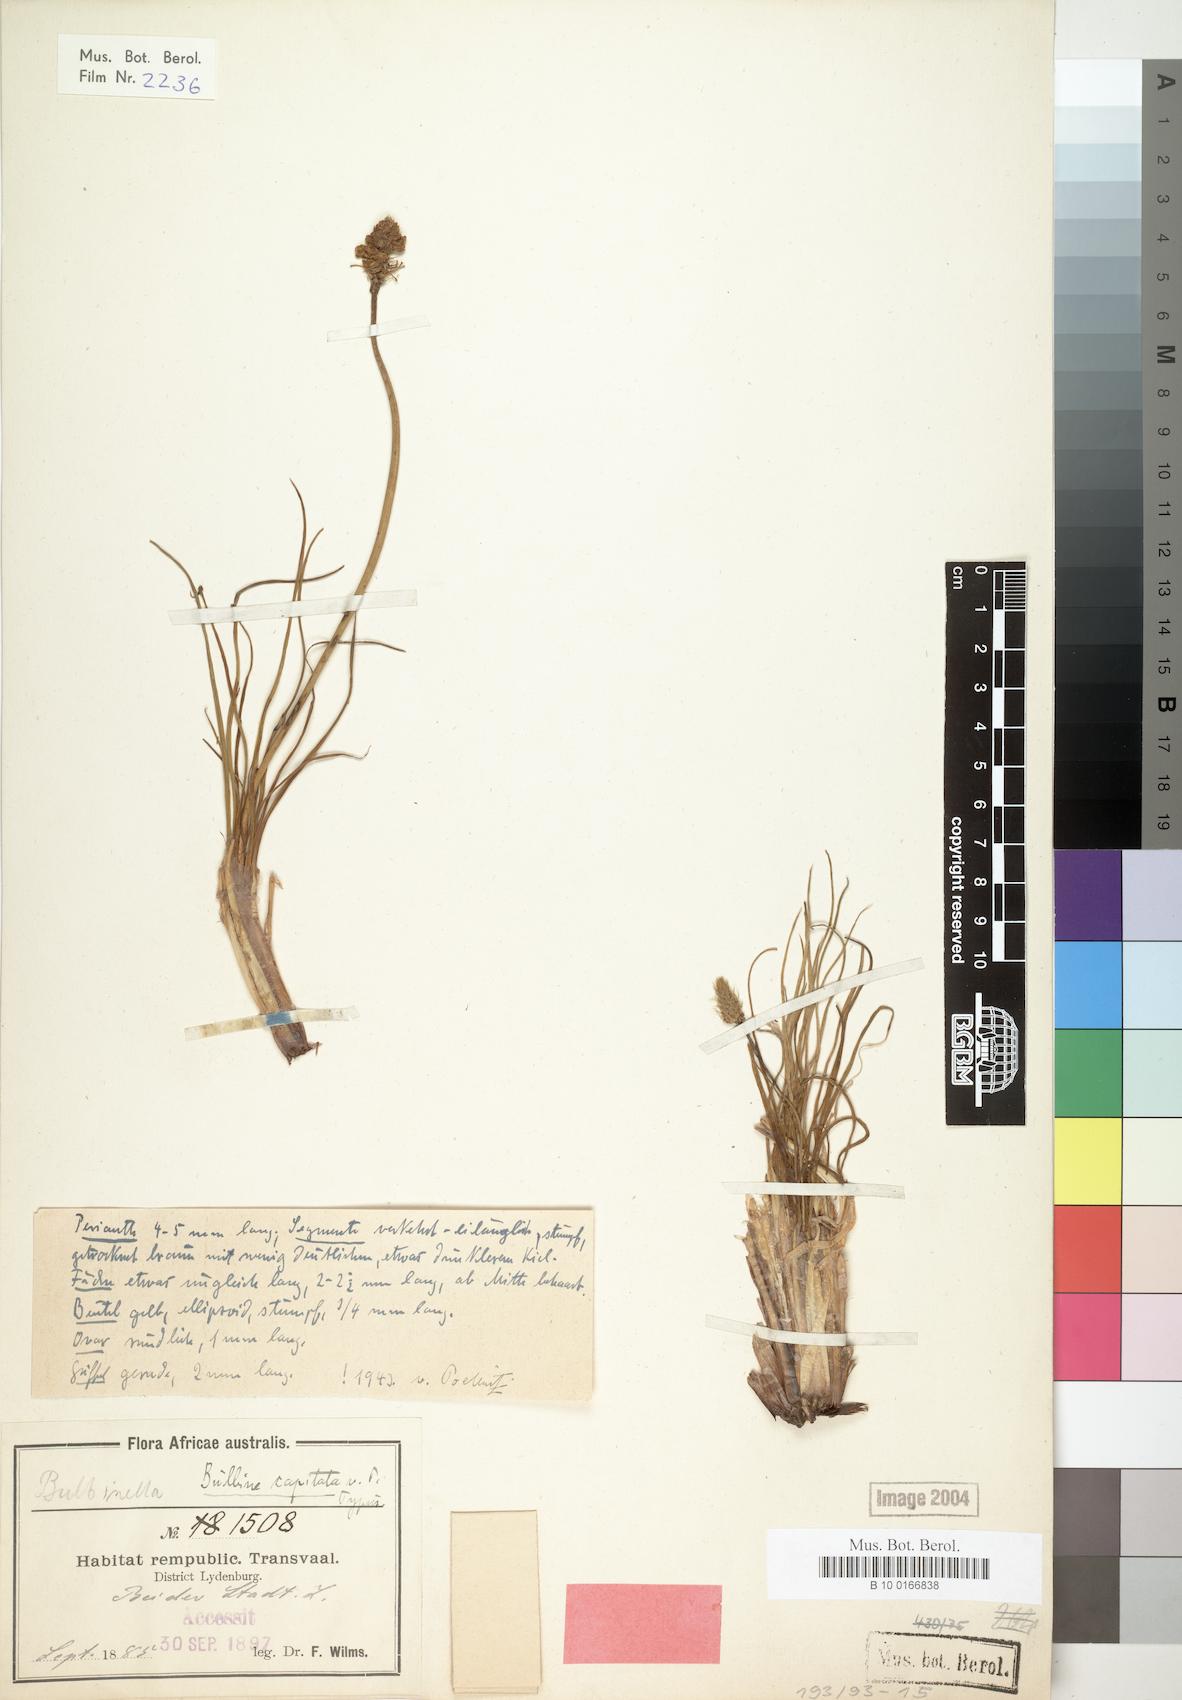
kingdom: Plantae
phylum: Tracheophyta
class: Liliopsida
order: Asparagales
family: Asphodelaceae
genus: Bulbine
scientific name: Bulbine capitata
